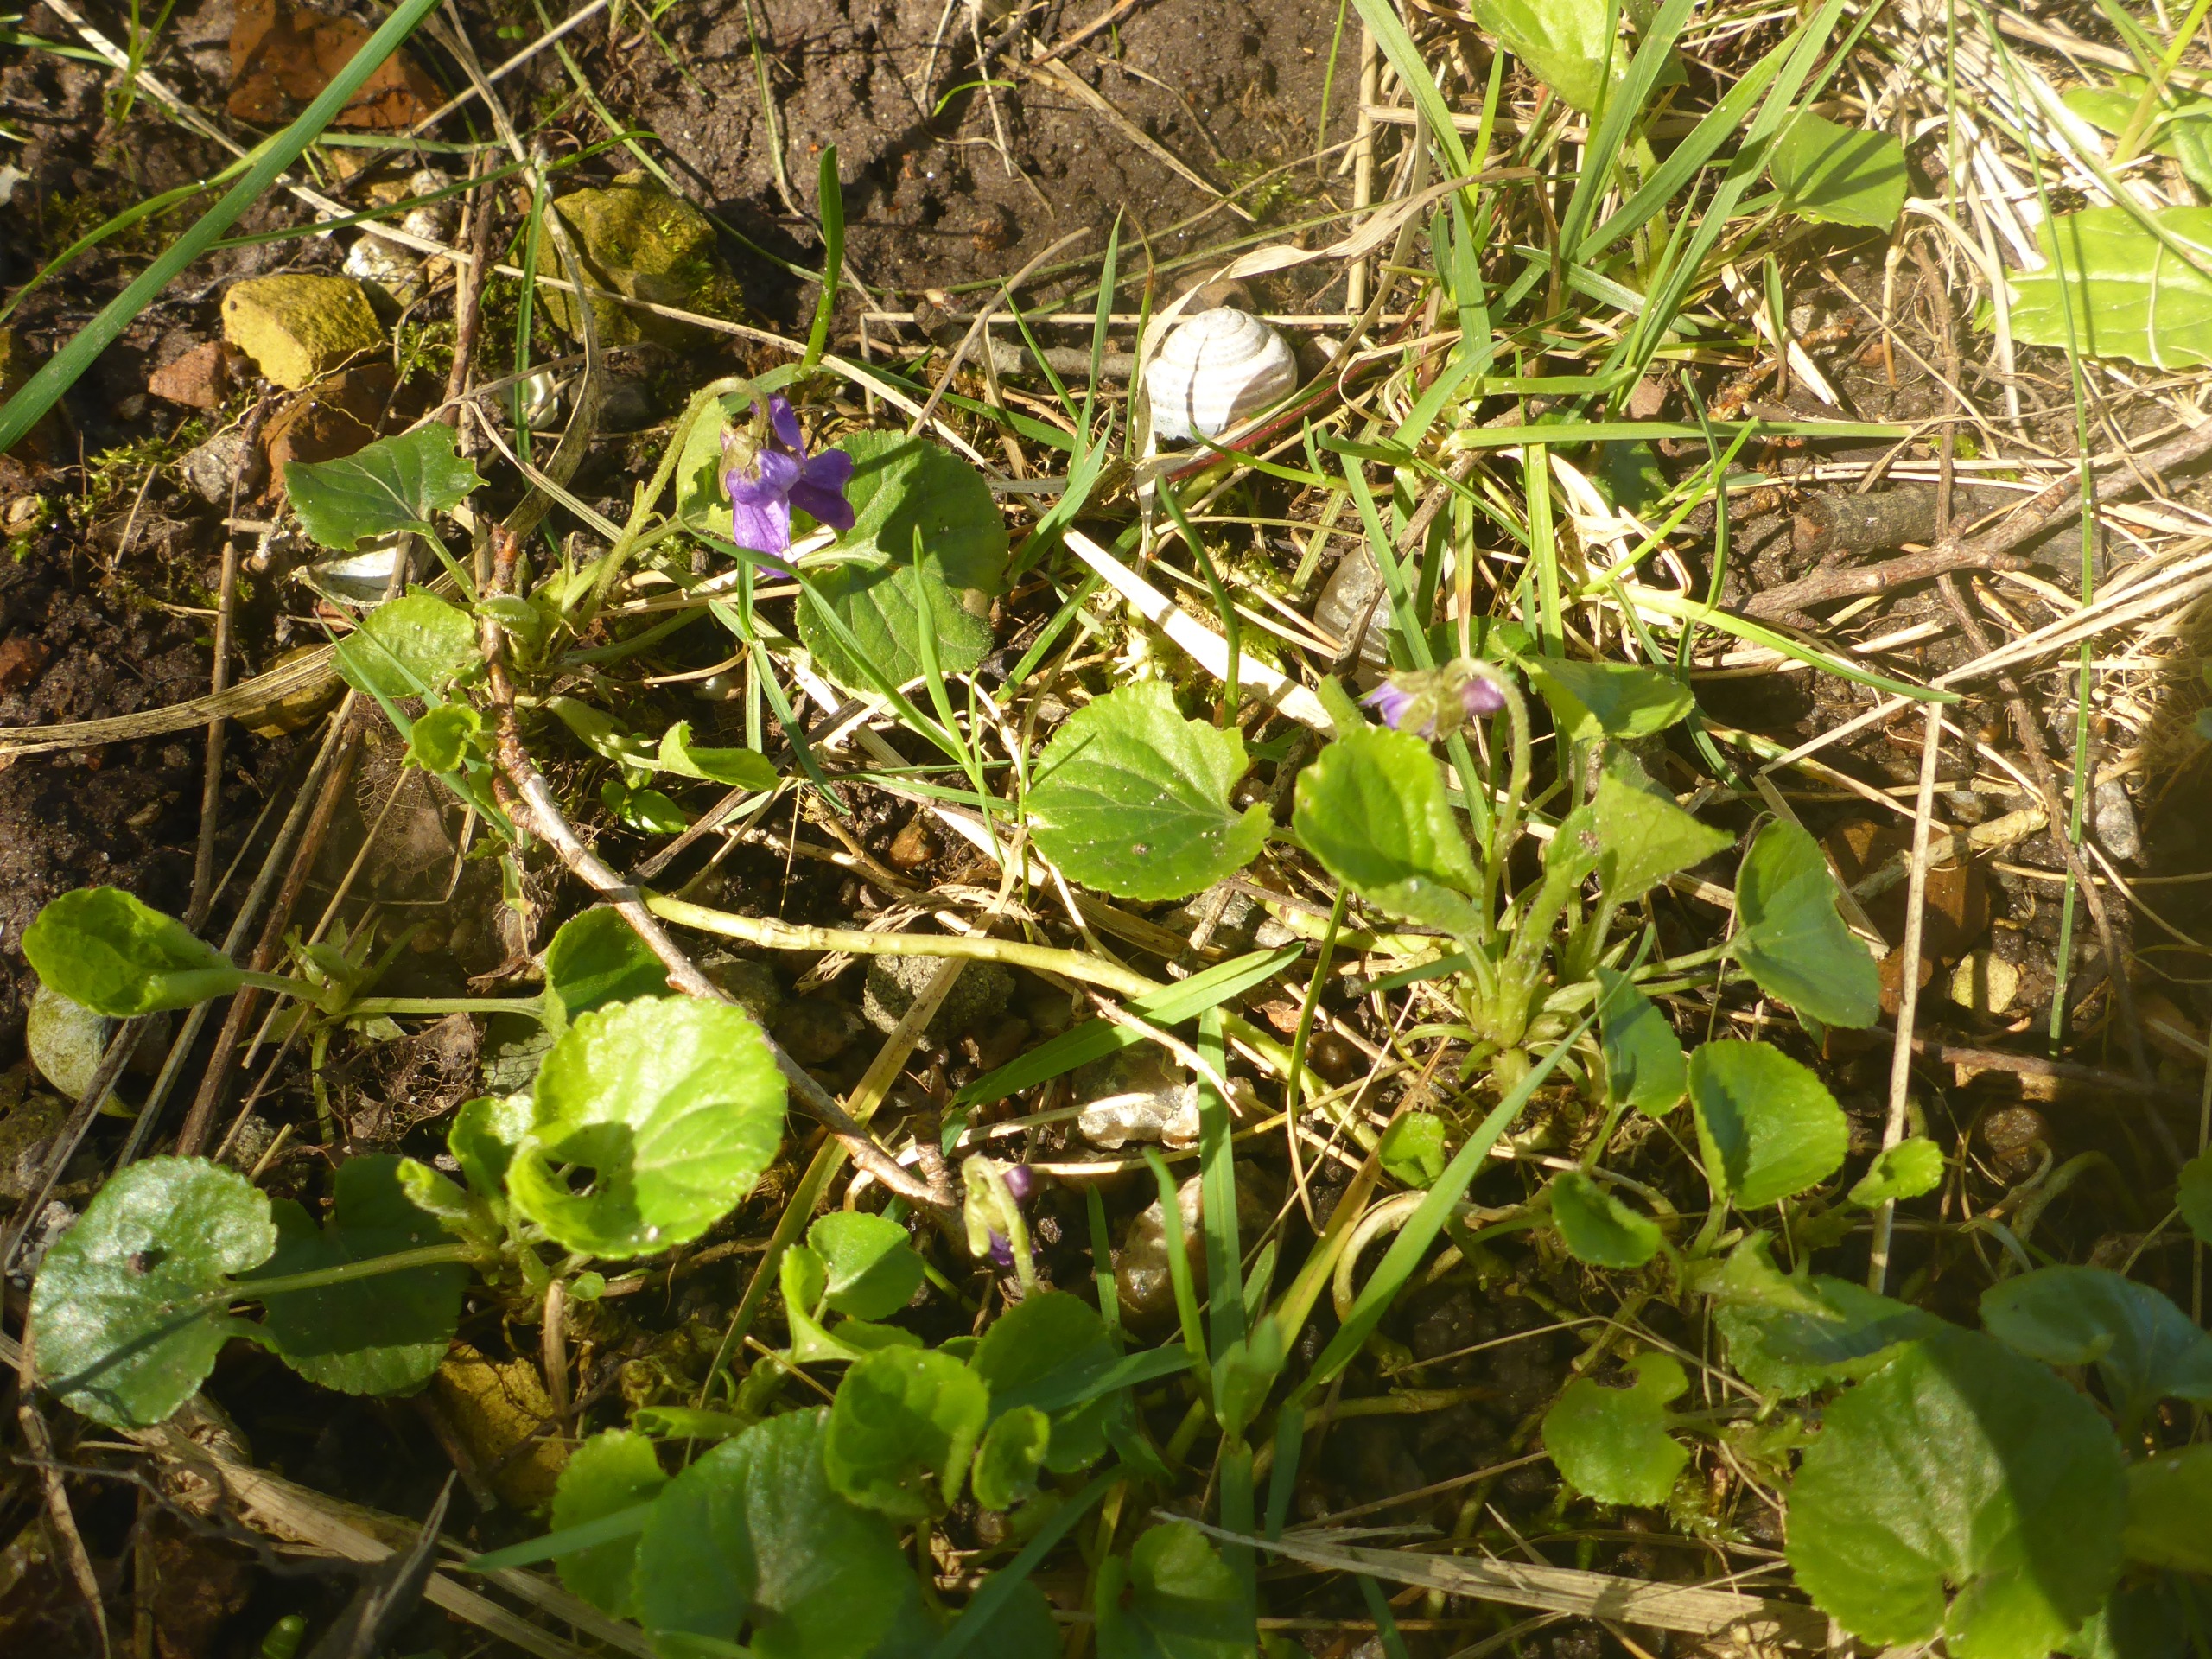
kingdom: Plantae
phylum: Tracheophyta
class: Magnoliopsida
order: Malpighiales
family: Violaceae
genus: Viola
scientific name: Viola odorata
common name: Marts-viol
